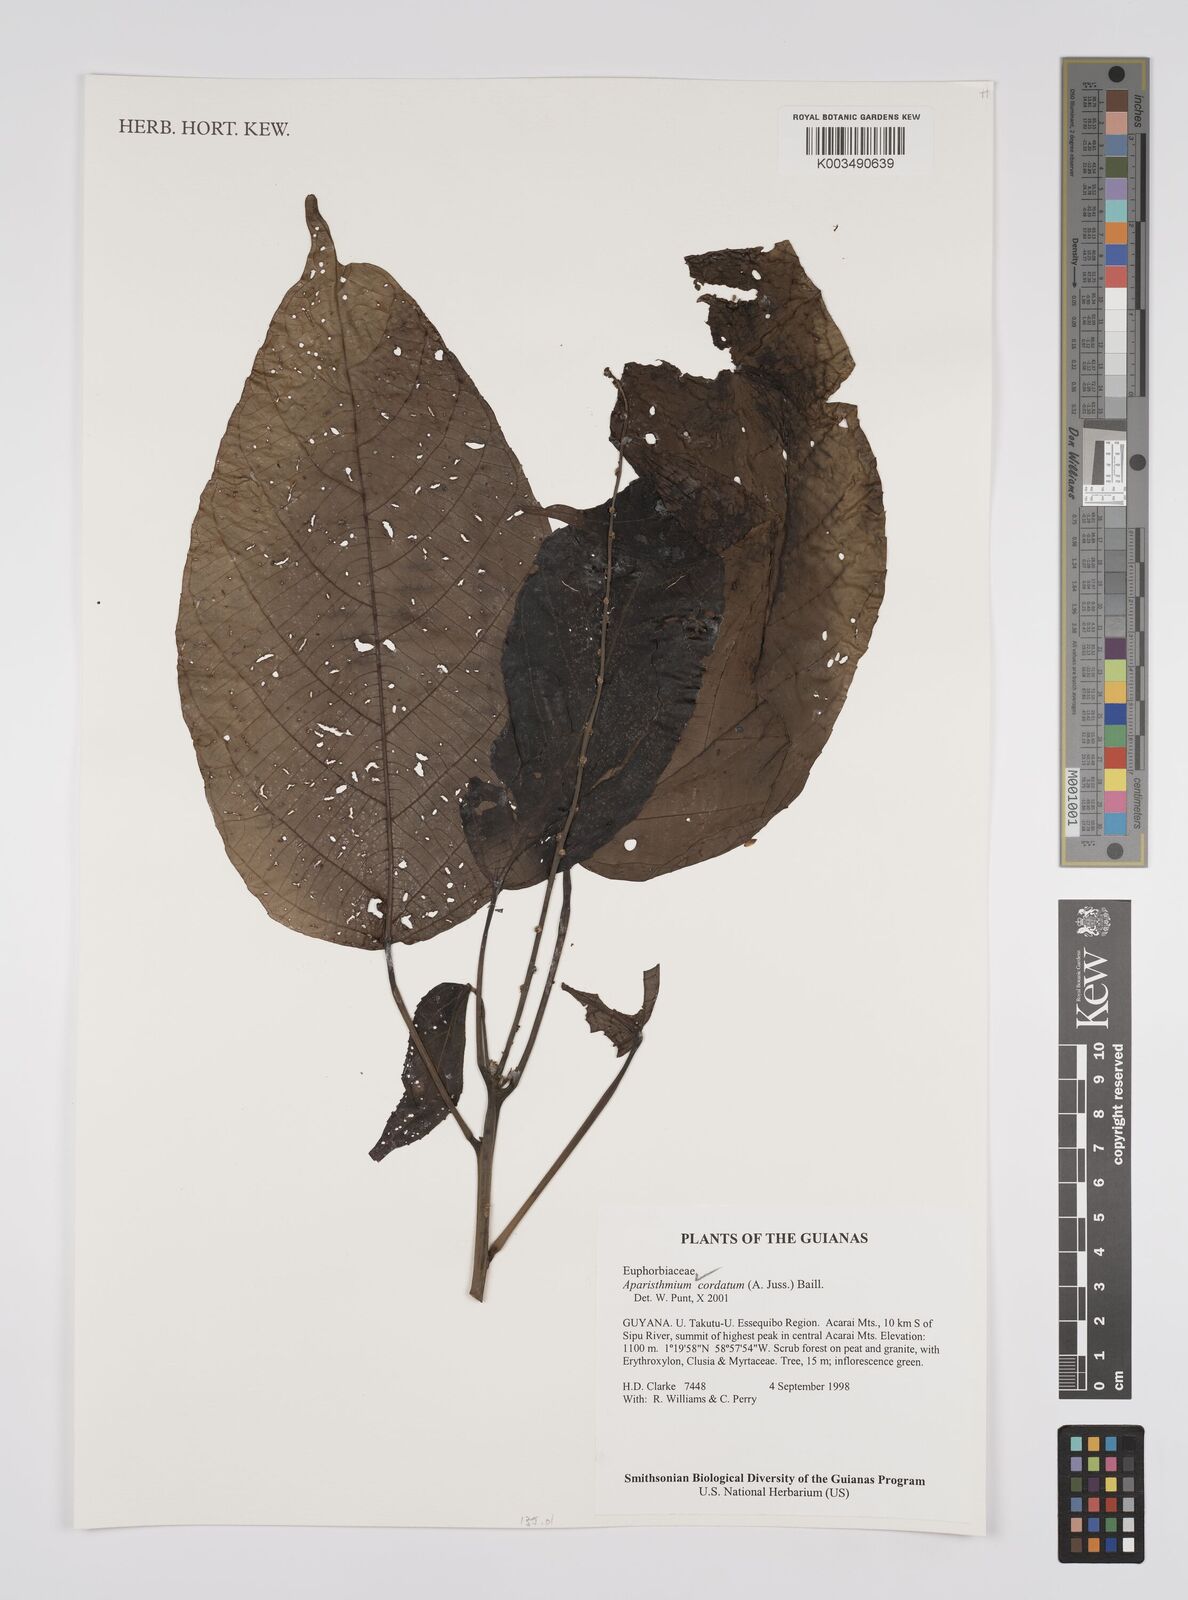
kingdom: Plantae
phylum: Tracheophyta
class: Magnoliopsida
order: Malpighiales
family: Euphorbiaceae
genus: Aparisthmium
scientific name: Aparisthmium cordatum
